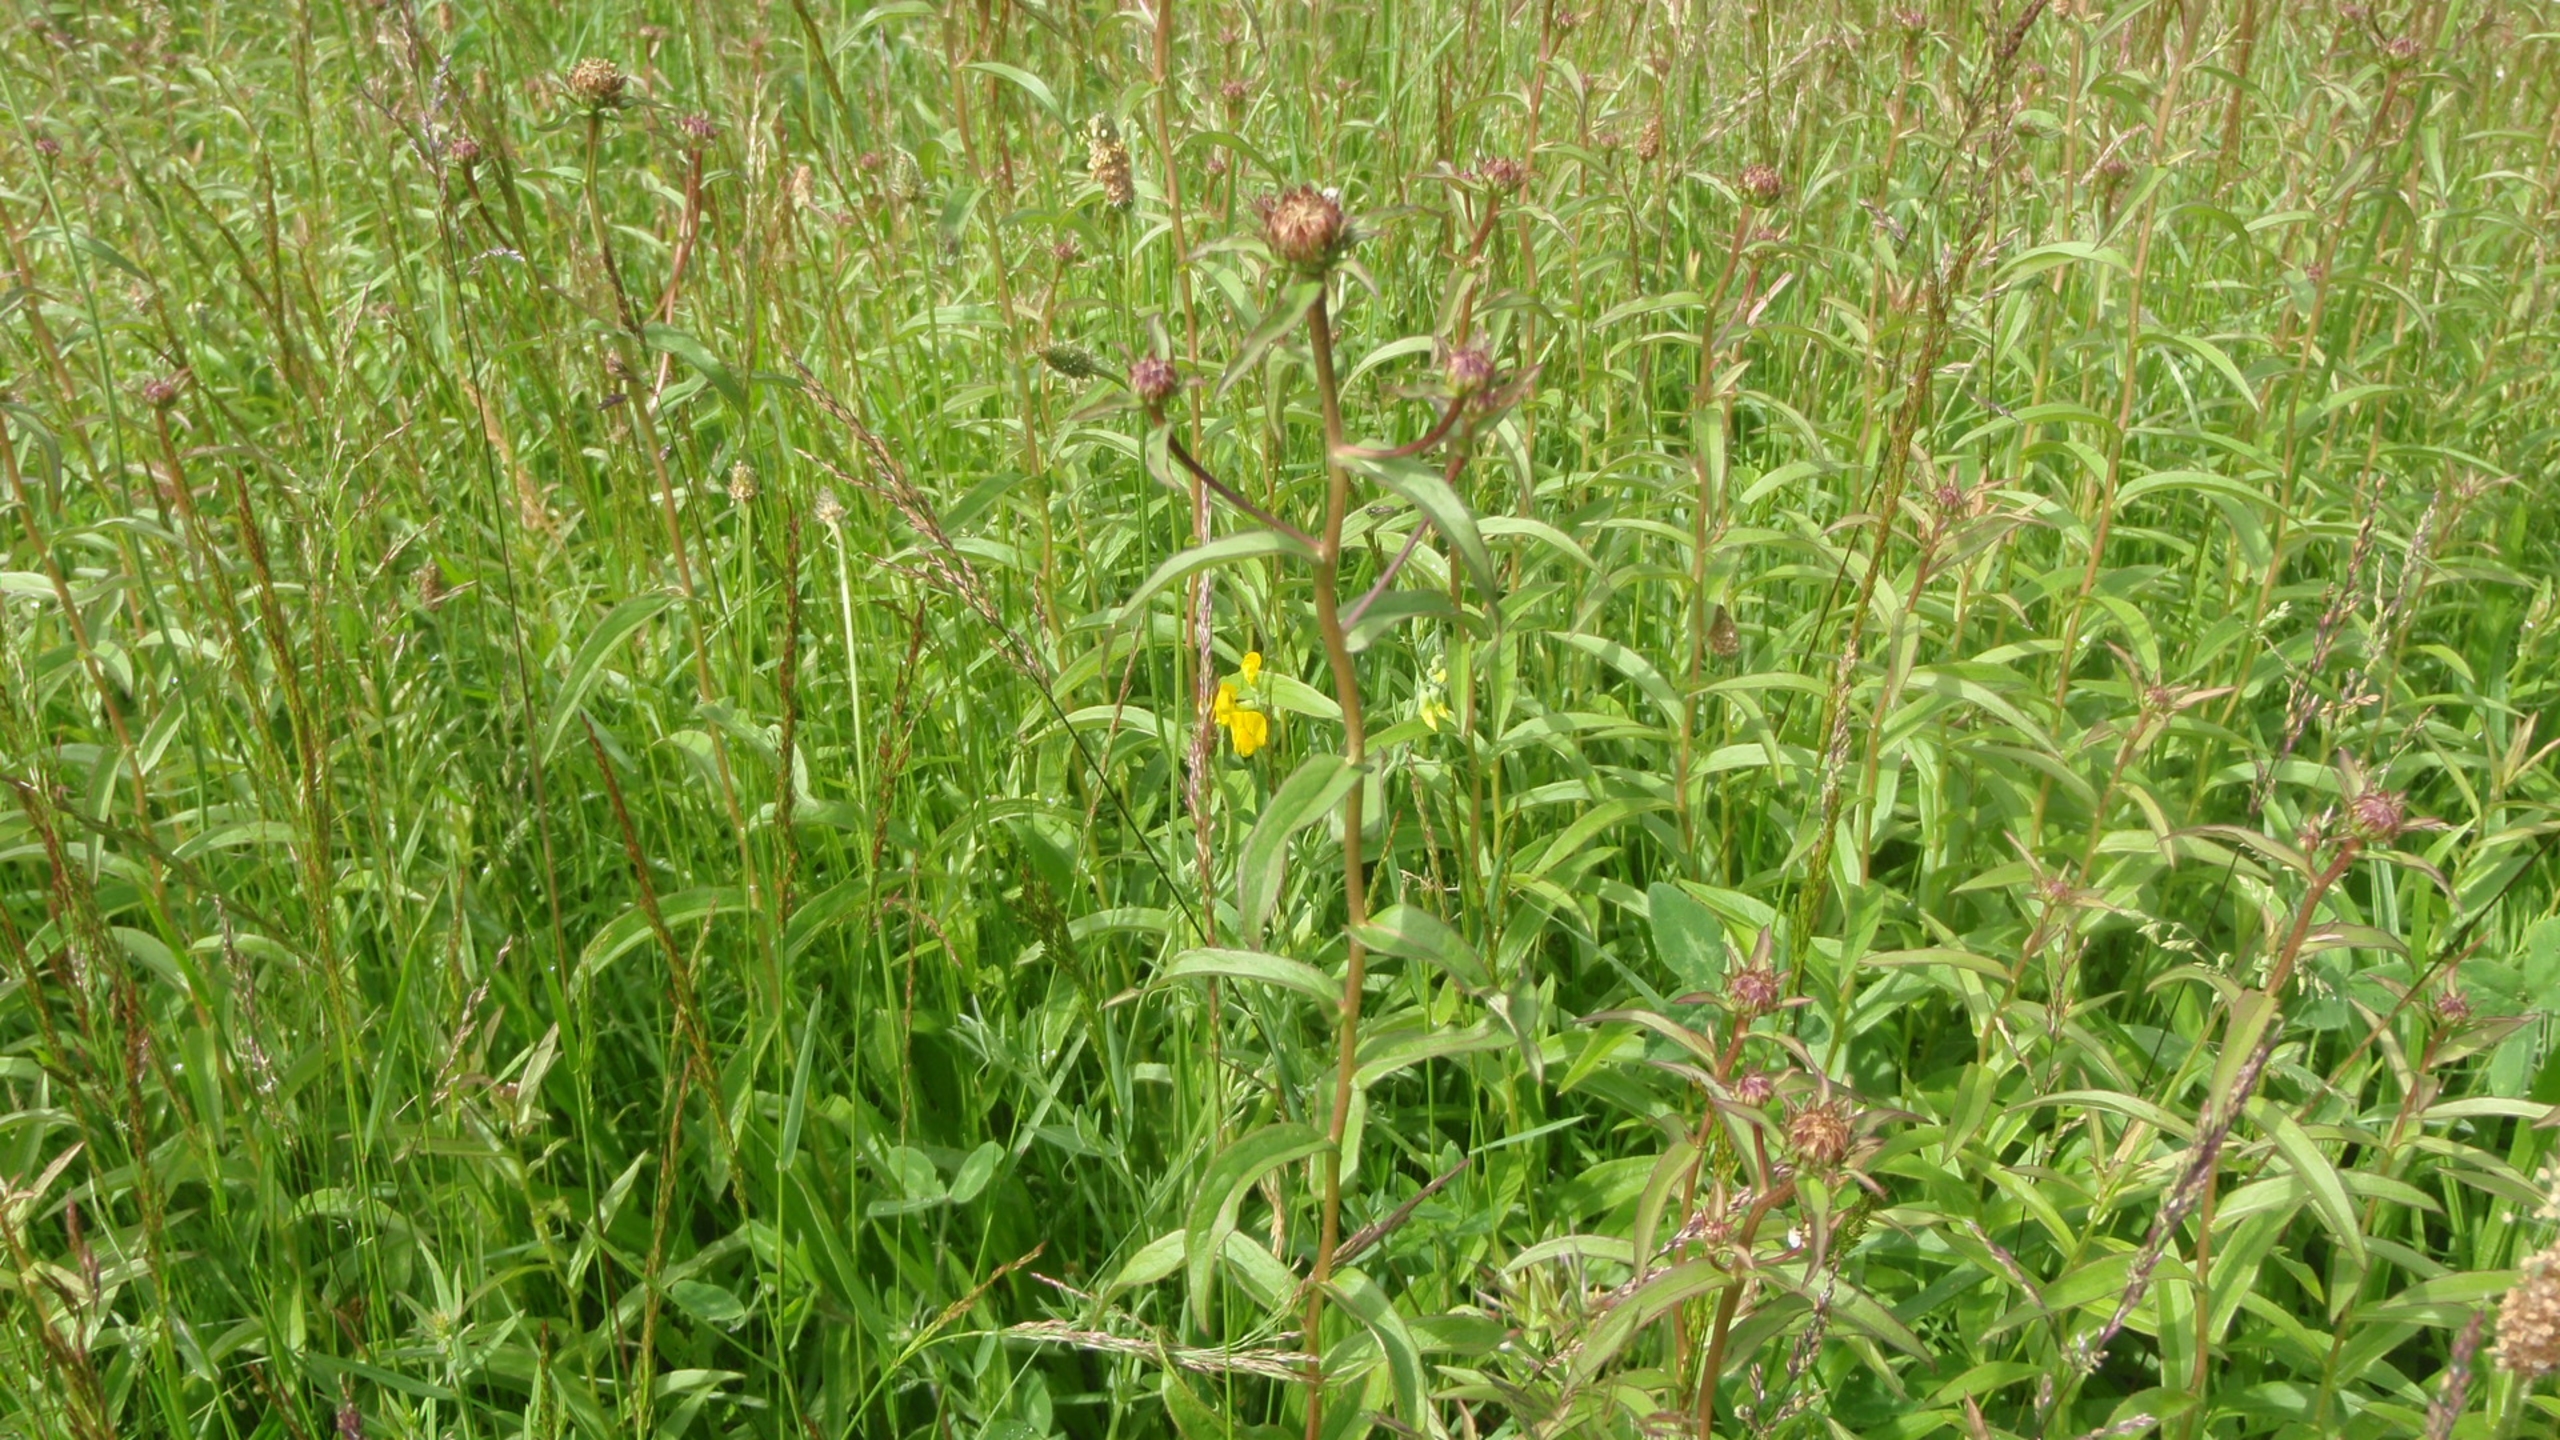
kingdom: Plantae
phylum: Tracheophyta
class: Magnoliopsida
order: Asterales
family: Asteraceae
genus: Pentanema
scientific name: Pentanema salicinum
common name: Pile-alant
